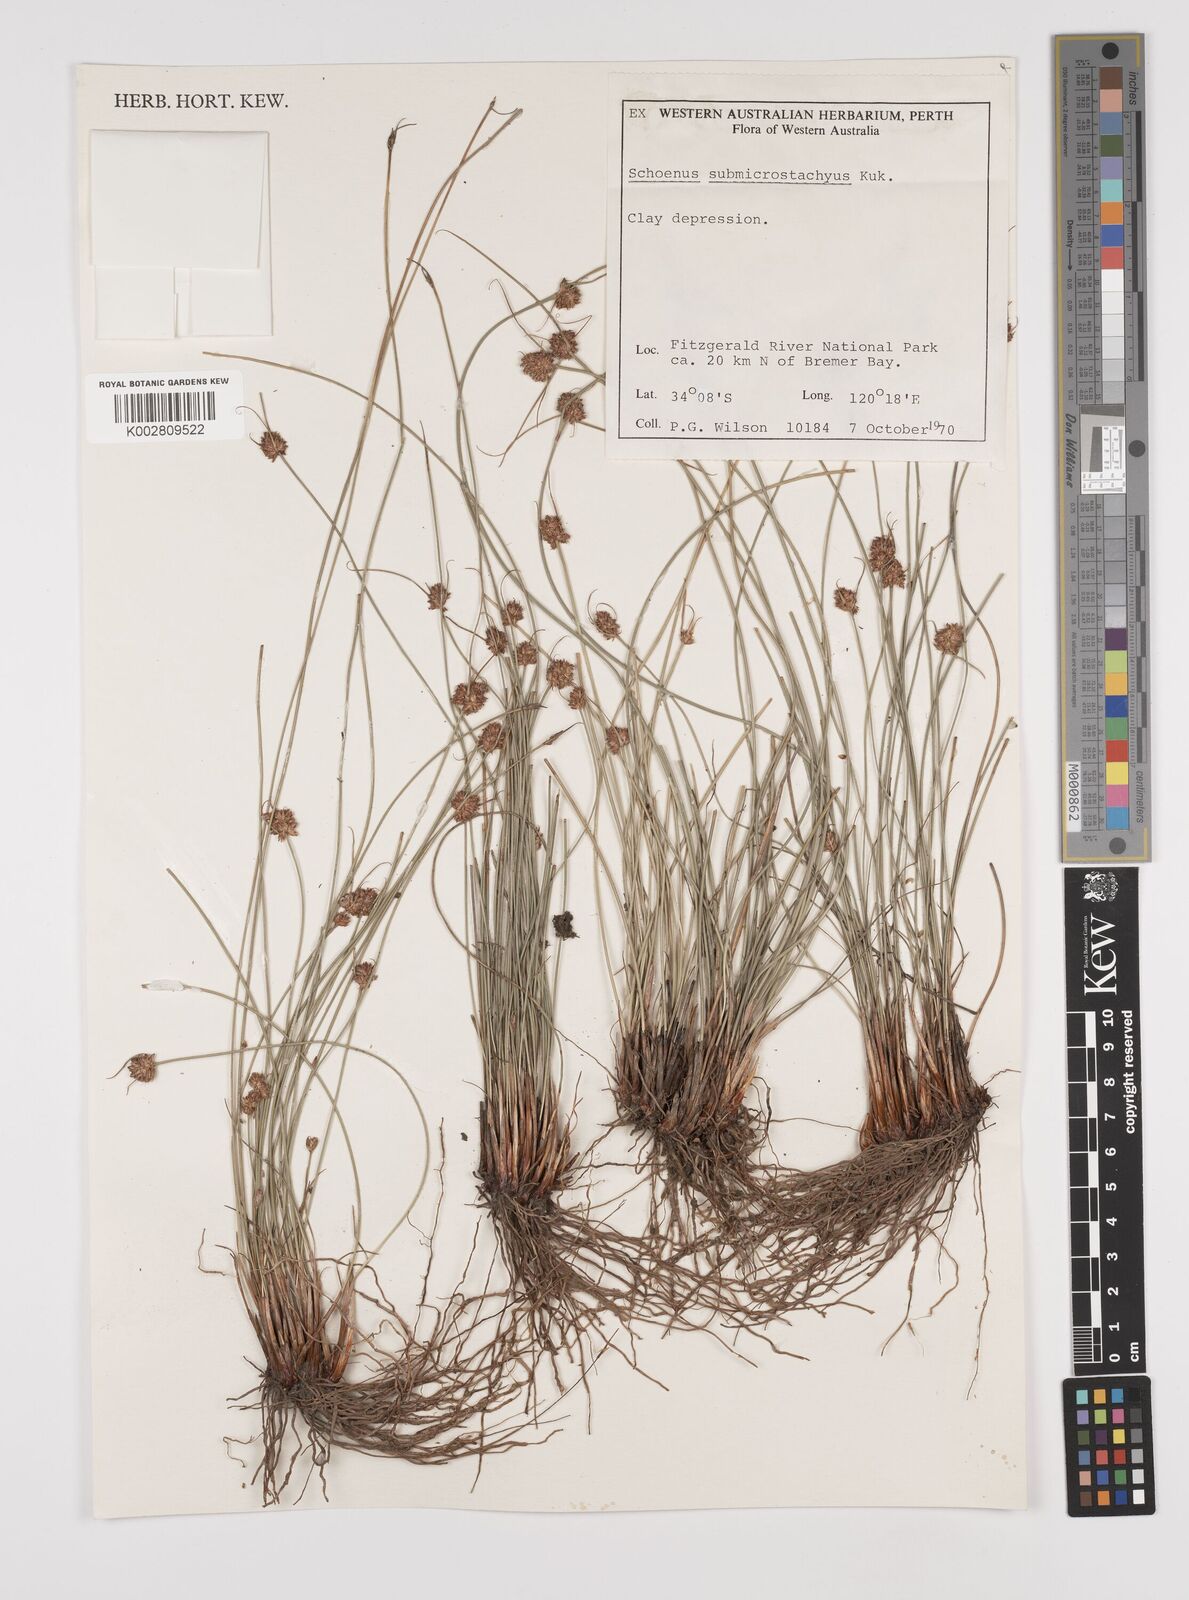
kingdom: Plantae
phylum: Tracheophyta
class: Liliopsida
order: Poales
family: Cyperaceae
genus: Schoenus
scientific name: Schoenus submicrostachyus
